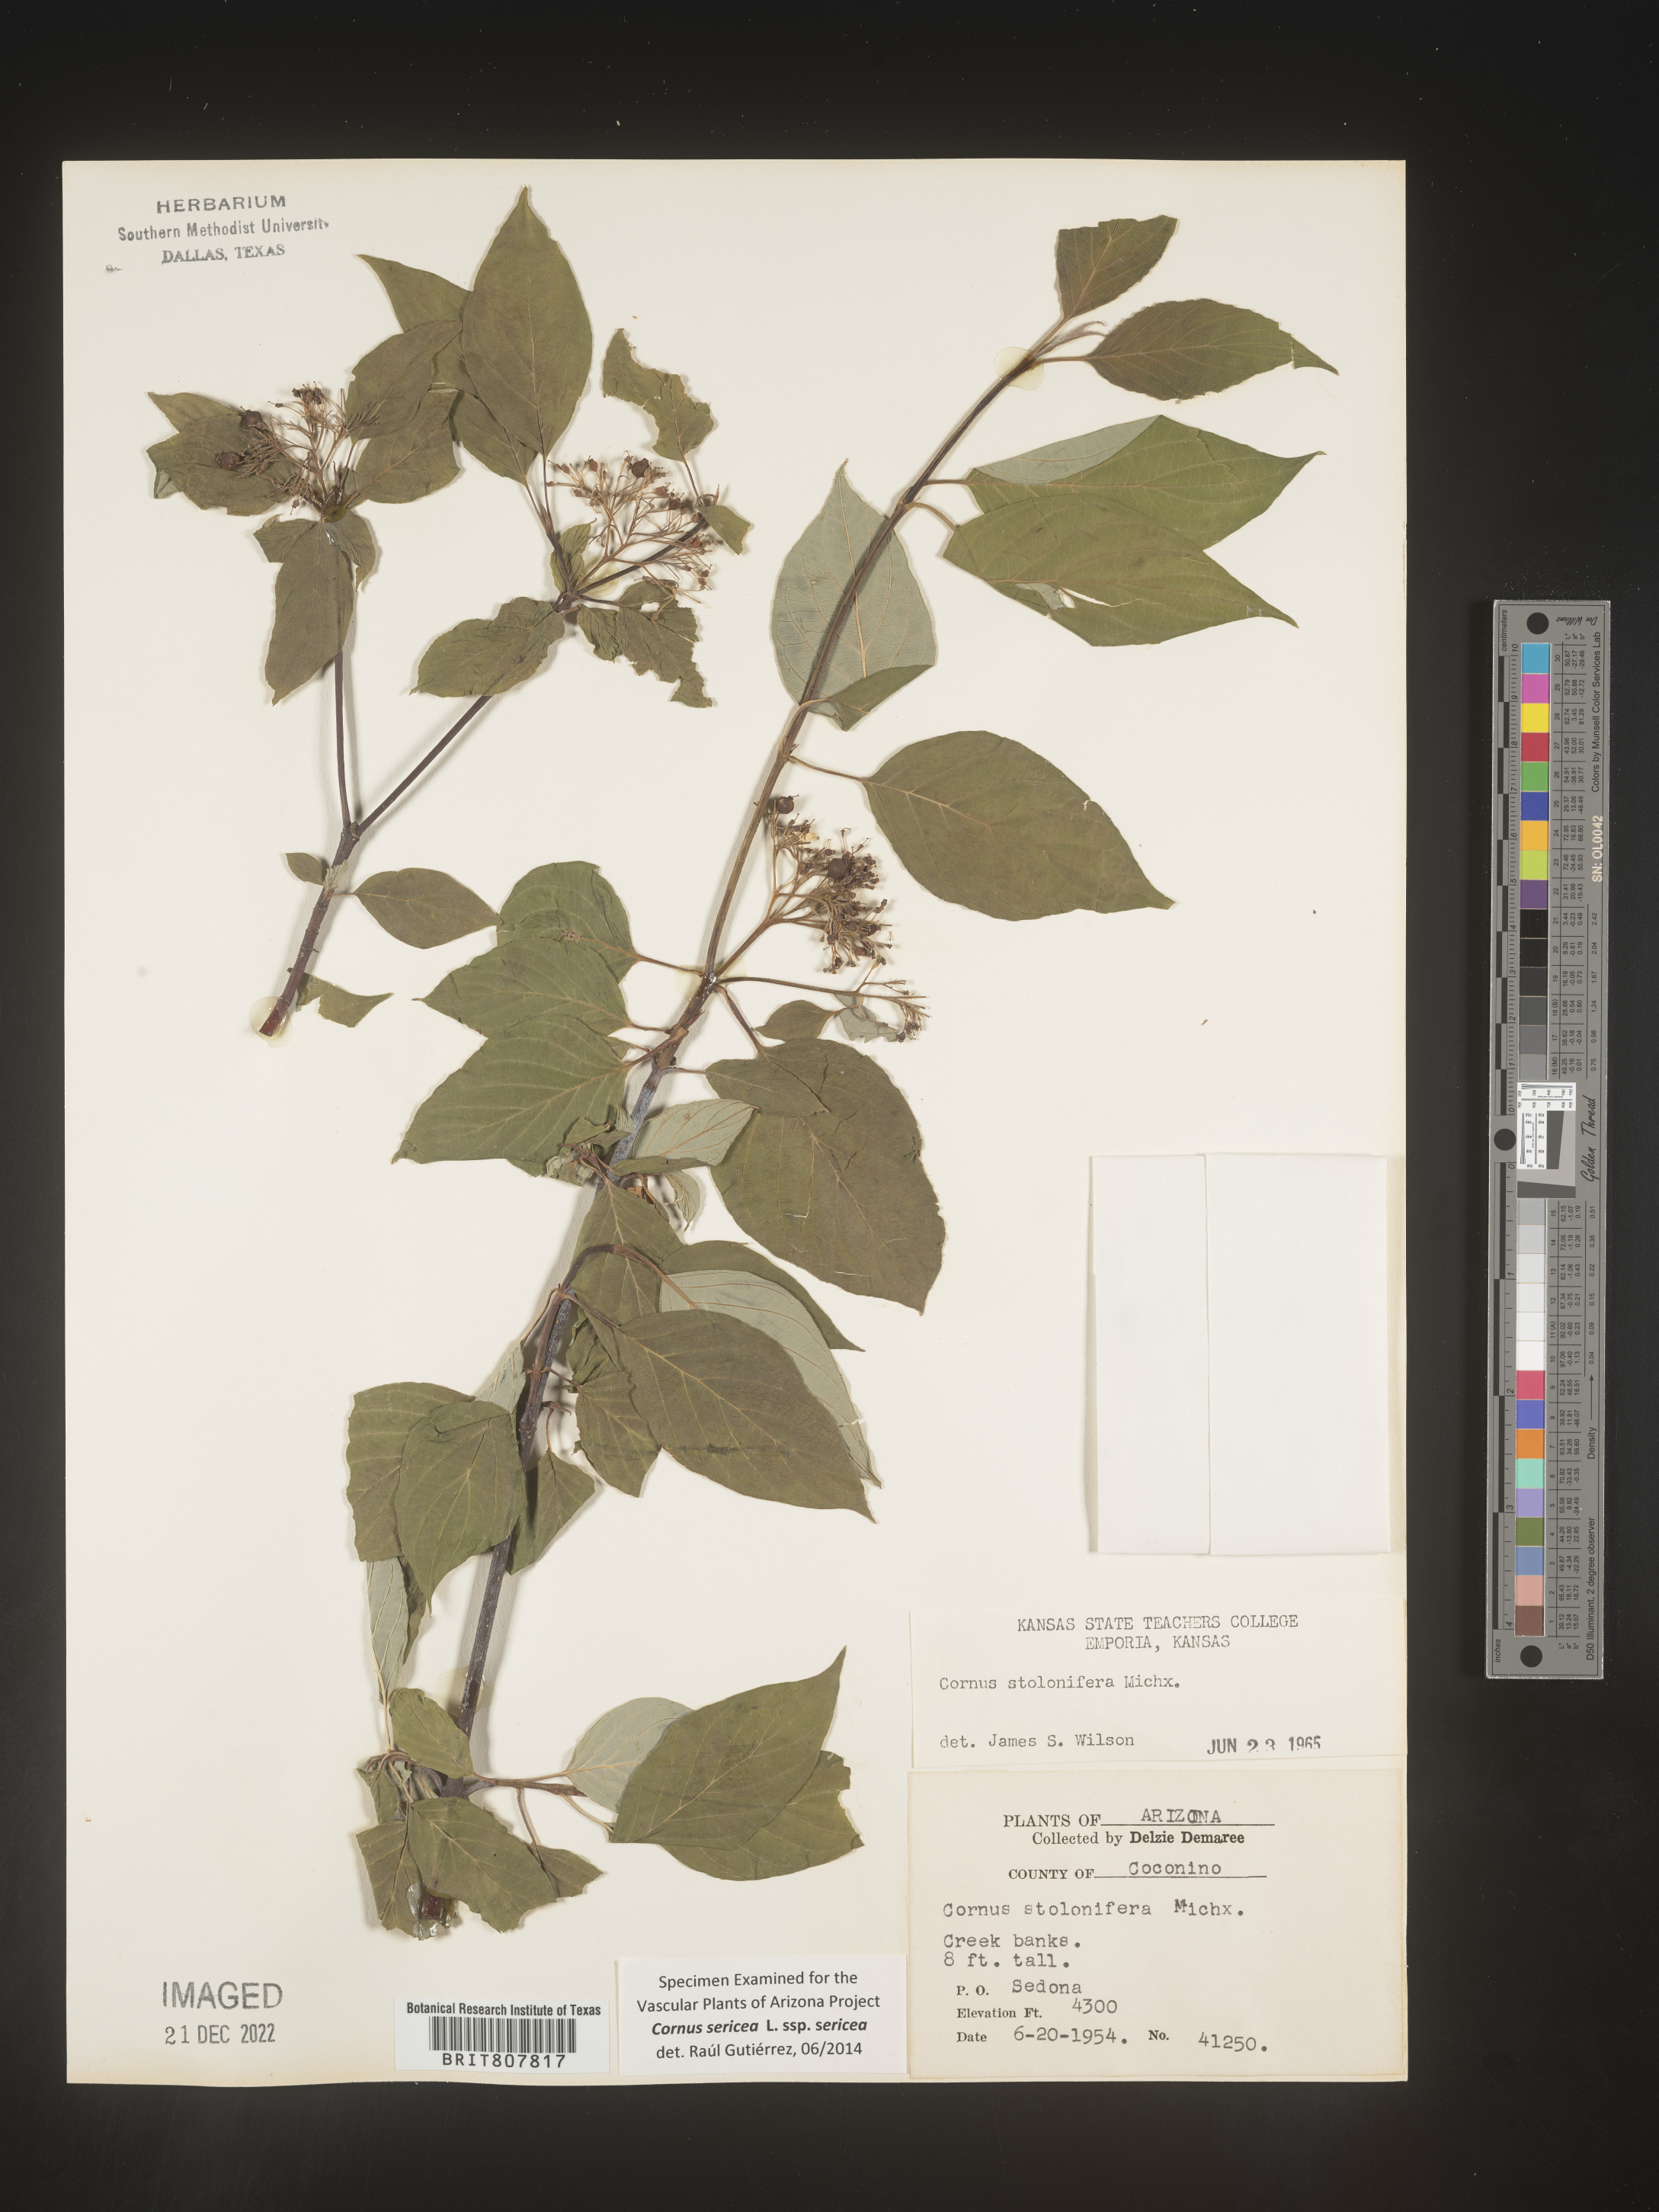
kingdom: Plantae
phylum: Tracheophyta
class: Magnoliopsida
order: Cornales
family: Cornaceae
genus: Cornus
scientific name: Cornus
